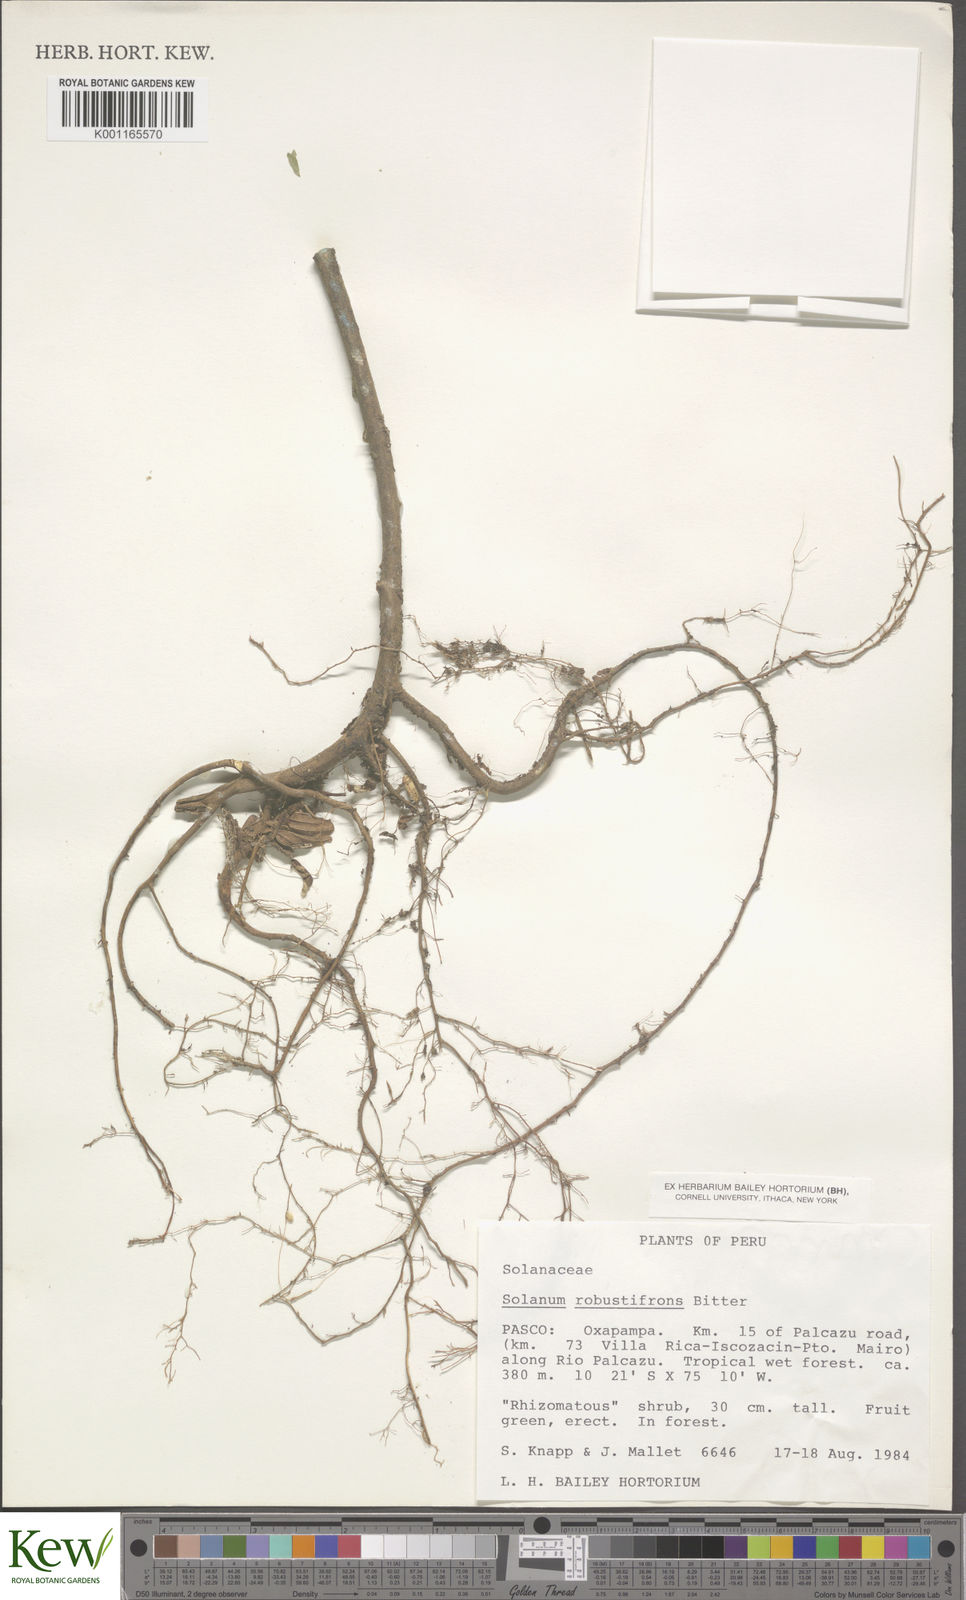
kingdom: Plantae
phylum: Tracheophyta
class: Magnoliopsida
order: Solanales
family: Solanaceae
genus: Solanum
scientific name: Solanum robustifrons
